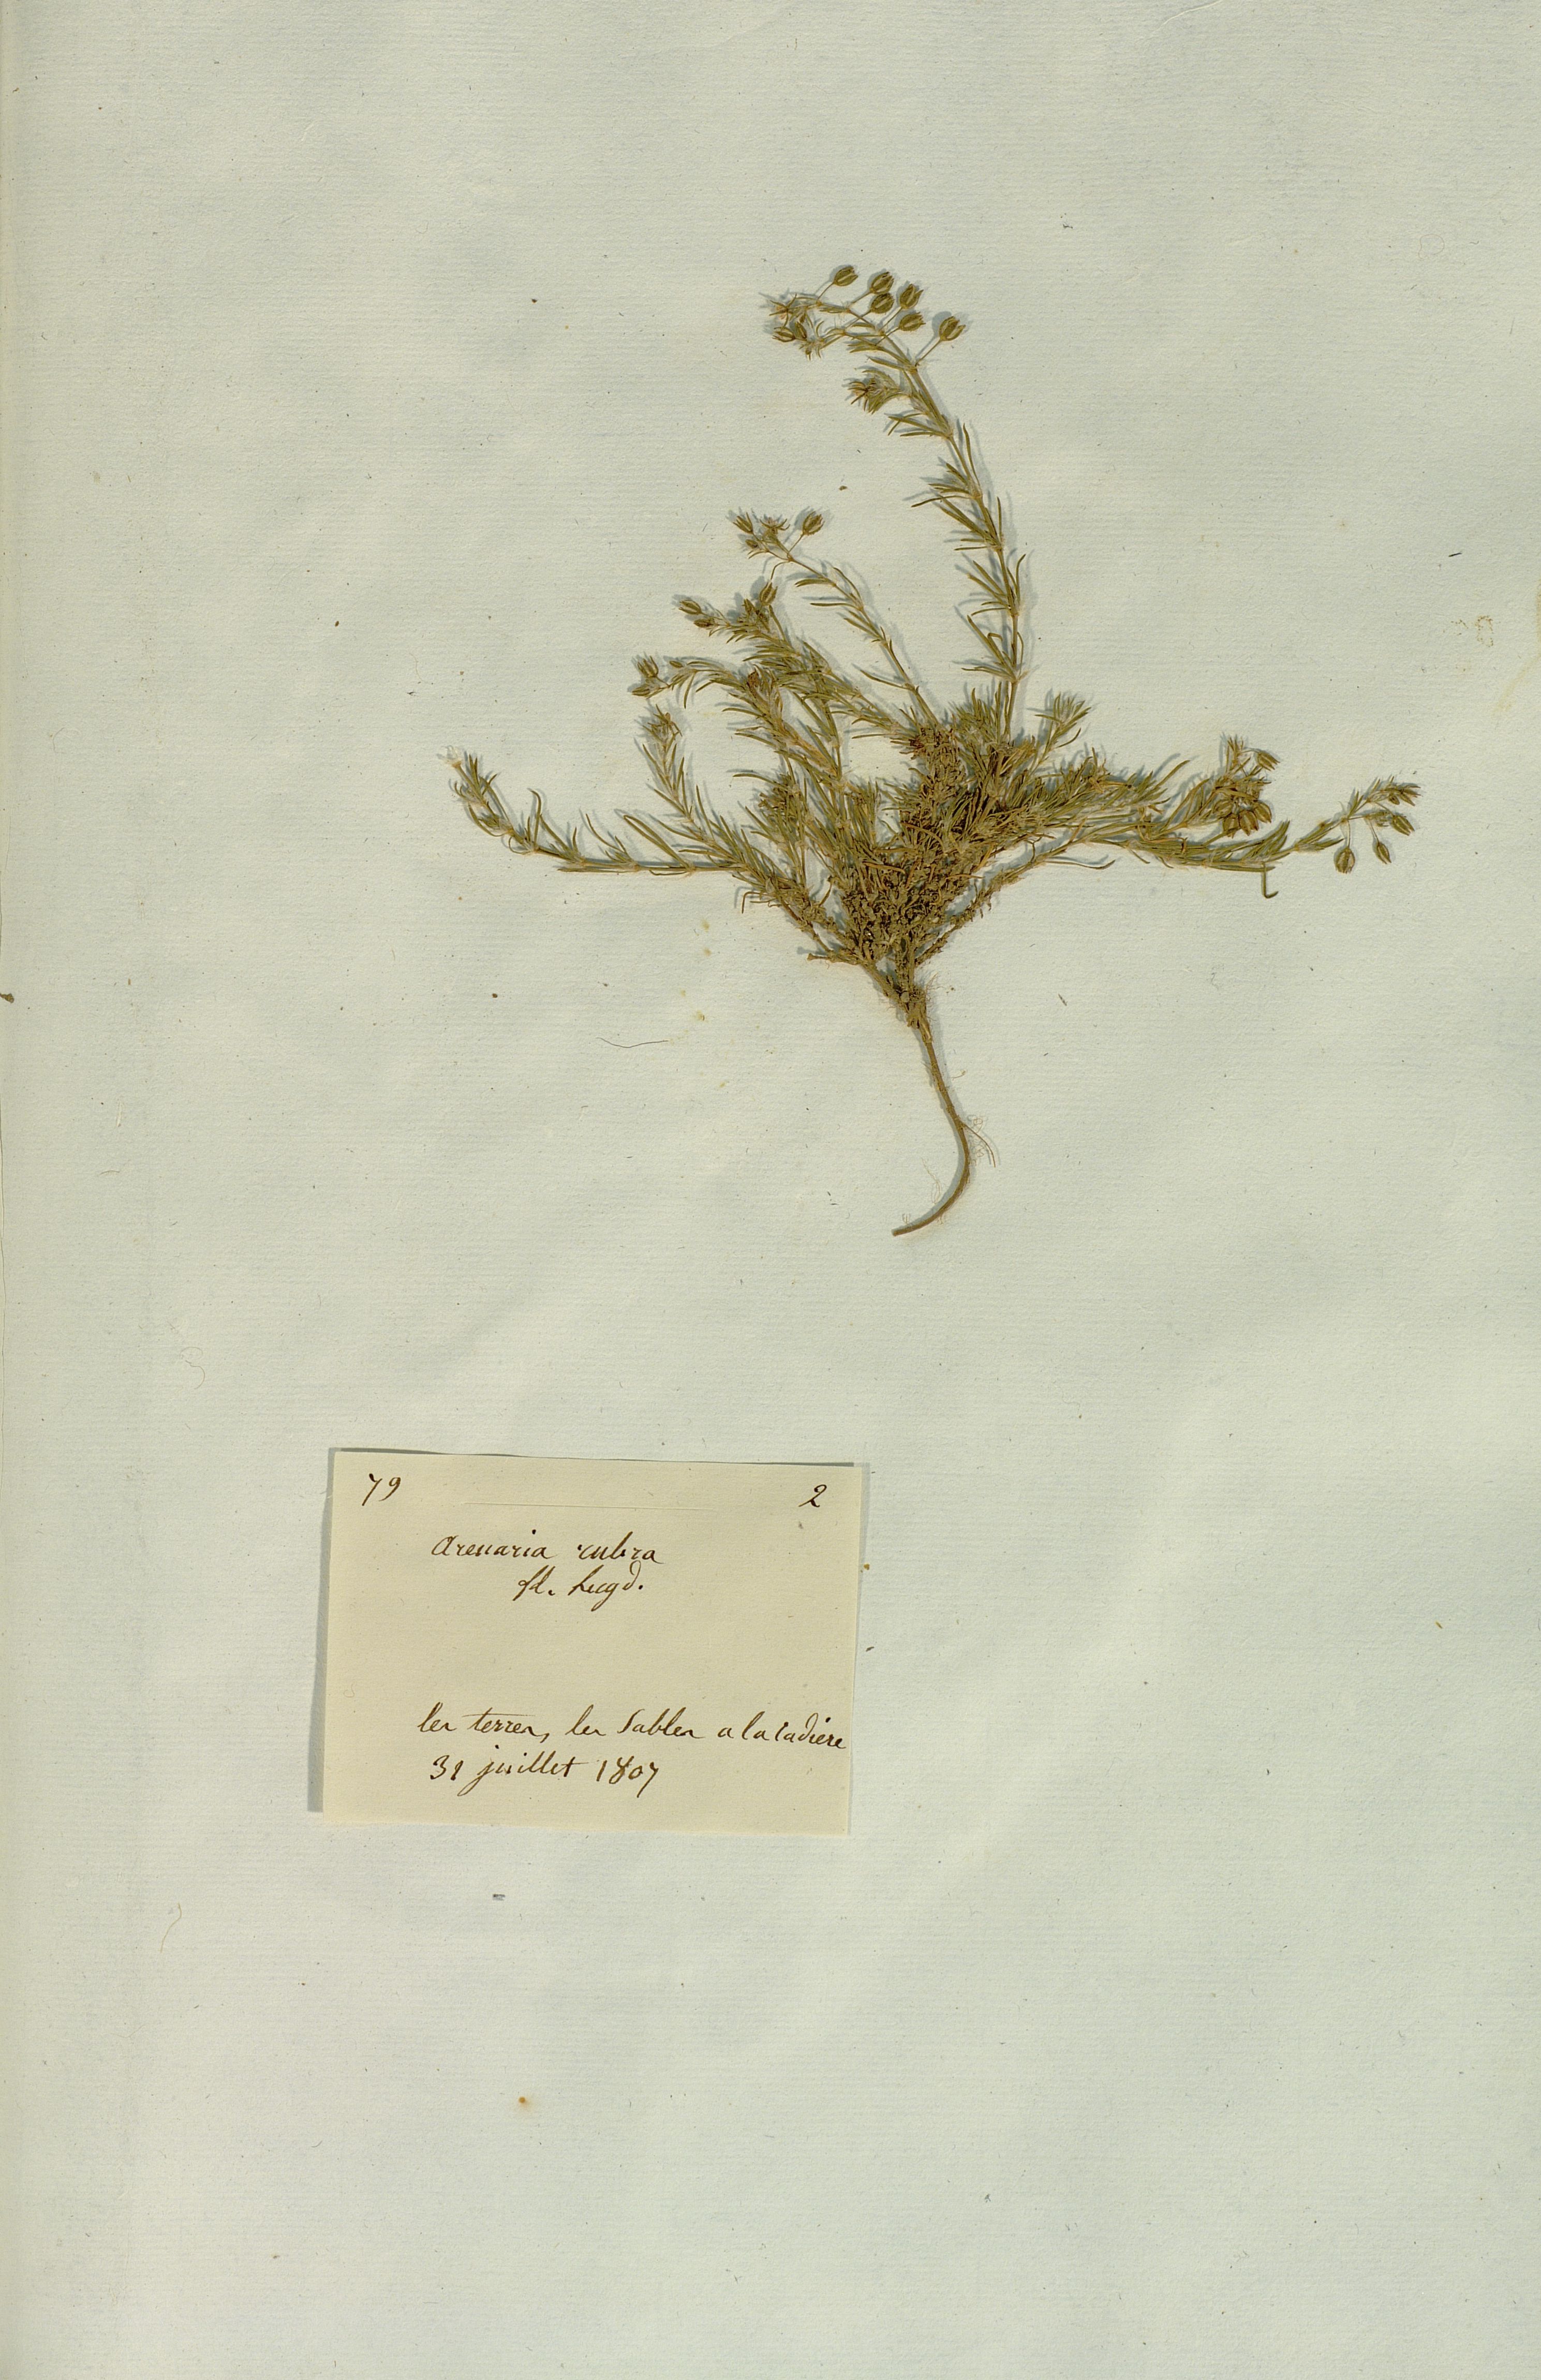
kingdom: Plantae
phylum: Tracheophyta
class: Magnoliopsida
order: Caryophyllales
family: Caryophyllaceae
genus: Spergularia
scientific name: Spergularia rubra
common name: Red sand-spurrey
